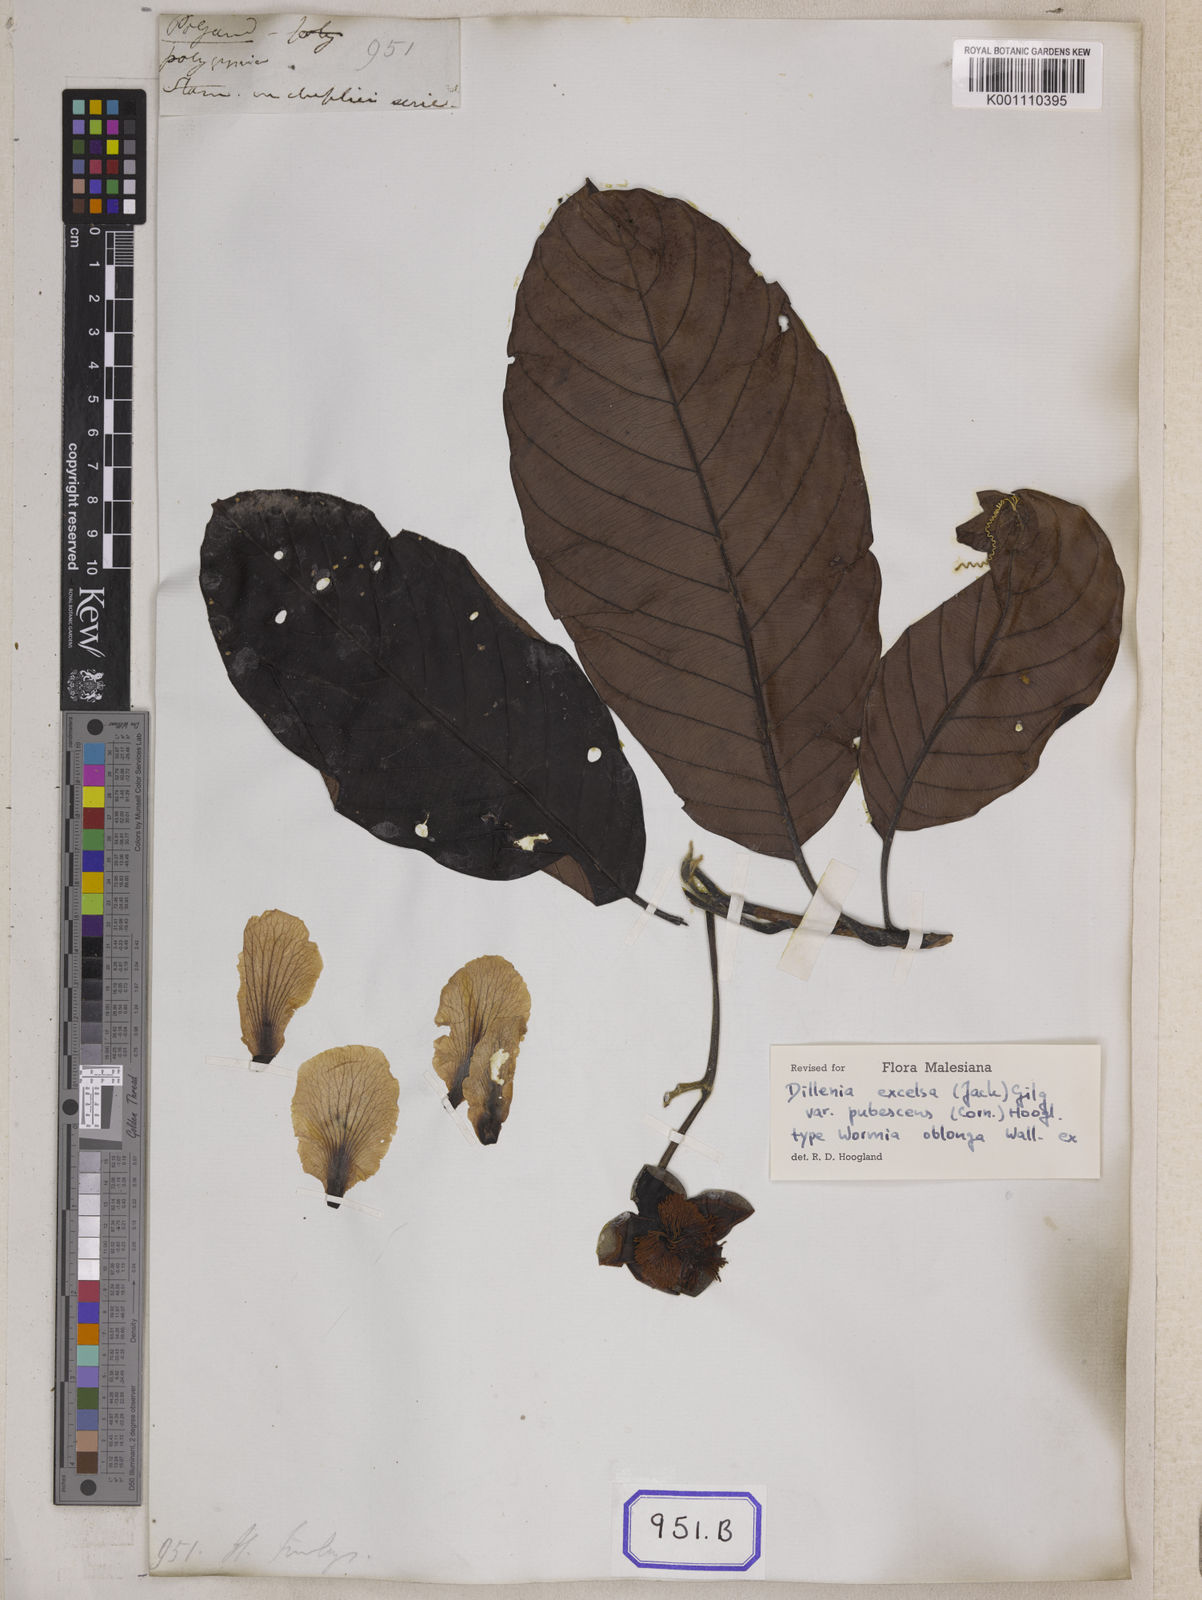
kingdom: Plantae
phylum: Tracheophyta
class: Magnoliopsida
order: Dilleniales
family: Dilleniaceae
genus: Dillenia
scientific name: Dillenia
